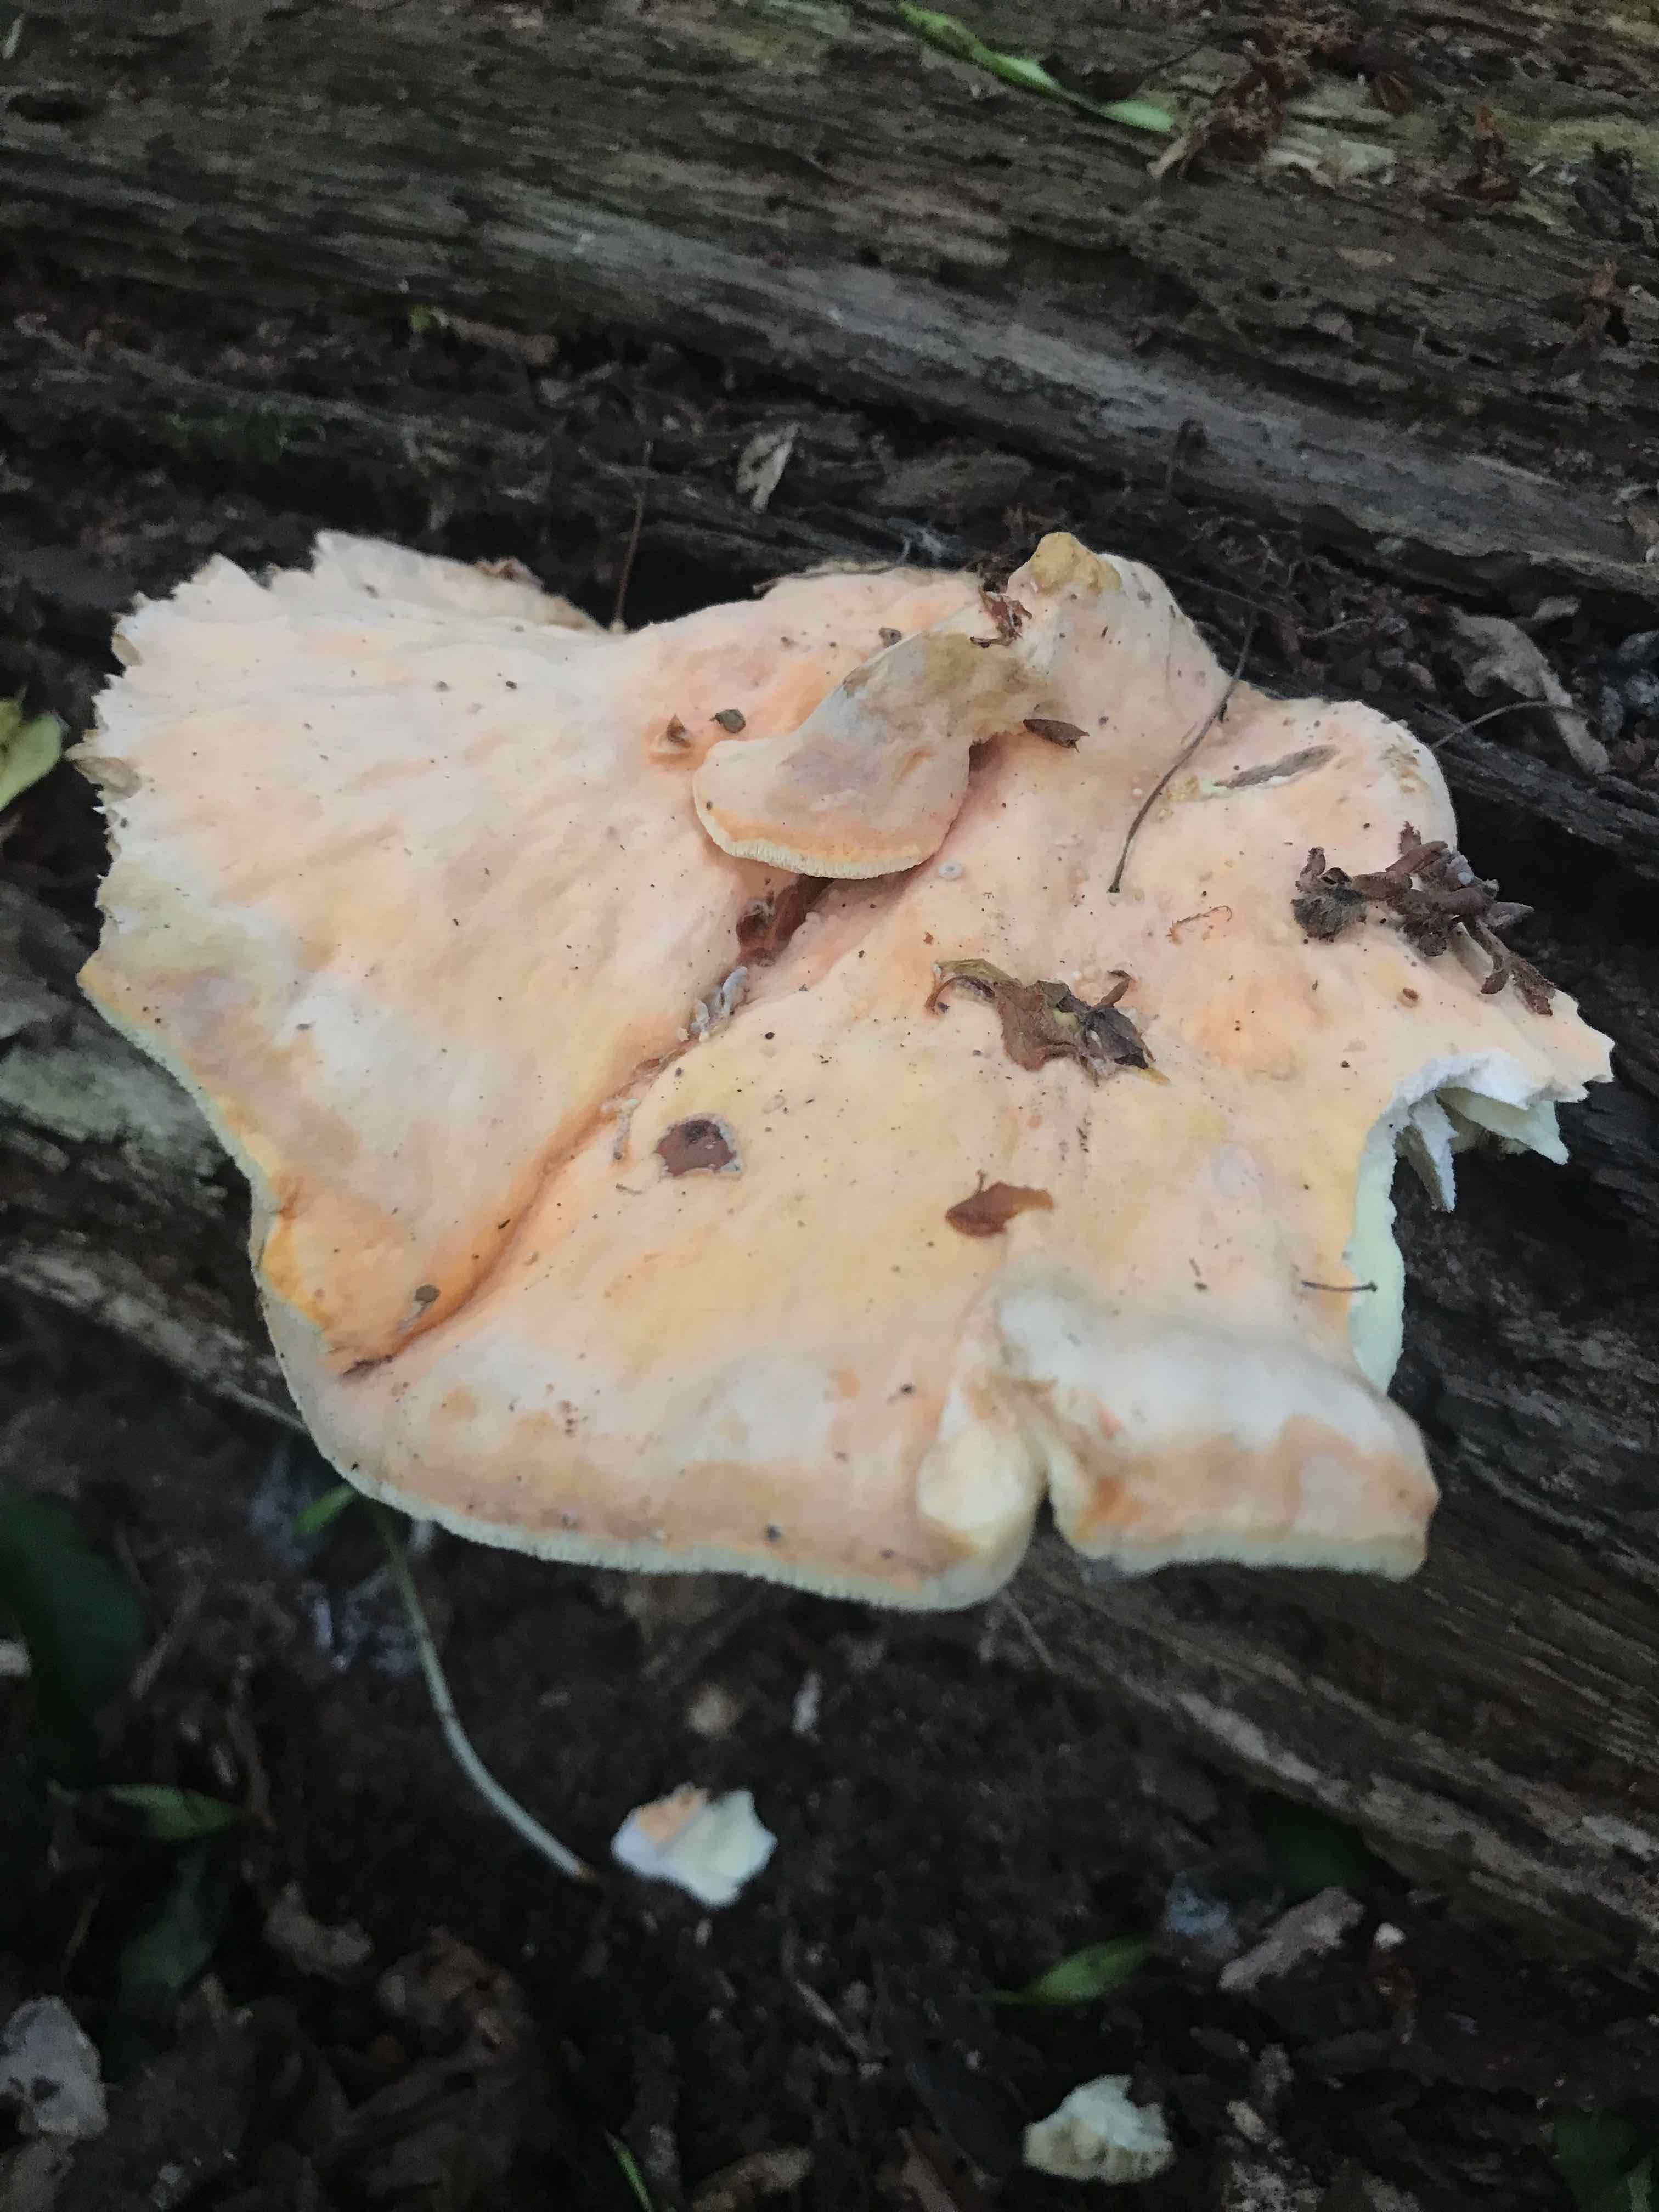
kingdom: Fungi
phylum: Basidiomycota
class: Agaricomycetes
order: Polyporales
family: Laetiporaceae
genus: Laetiporus
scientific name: Laetiporus sulphureus
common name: svovlporesvamp
